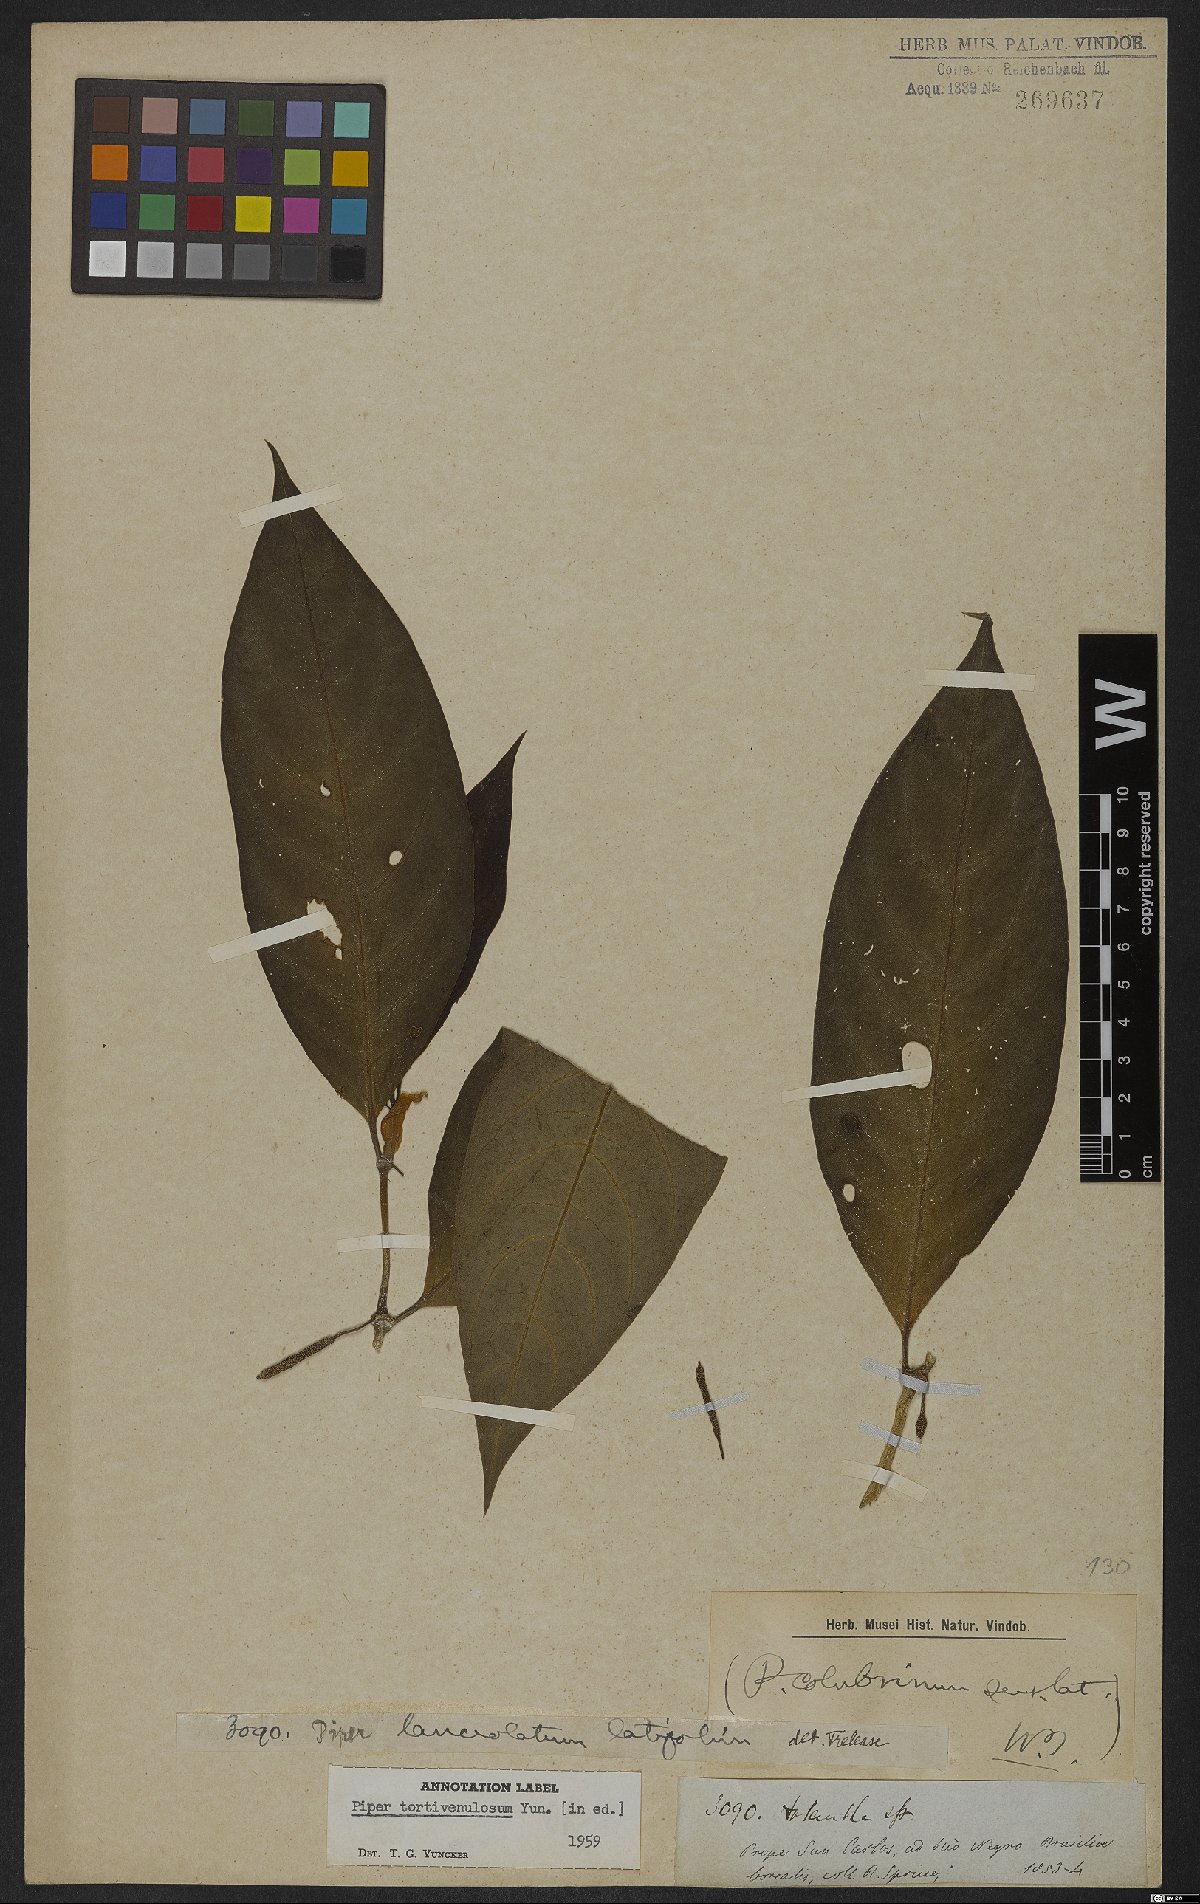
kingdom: Plantae
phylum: Tracheophyta
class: Magnoliopsida
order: Piperales
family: Piperaceae
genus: Piper
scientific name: Piper tortivenulosum
